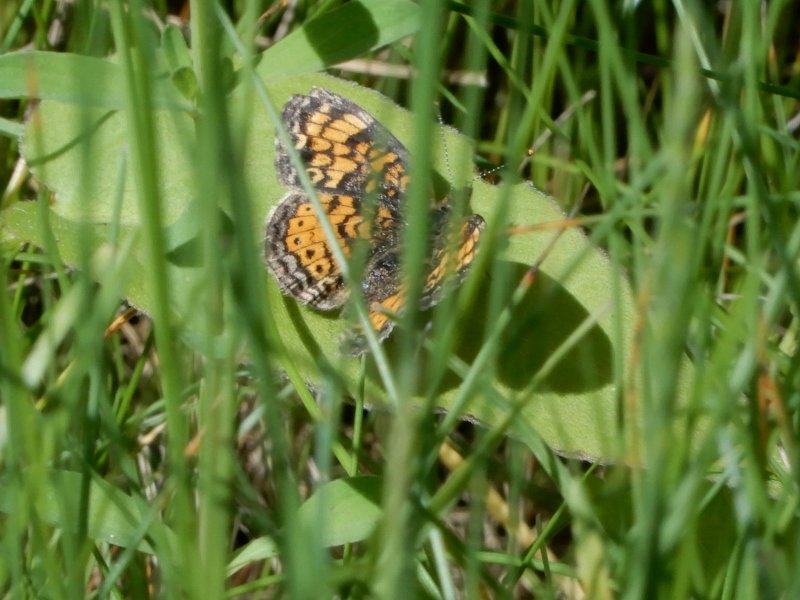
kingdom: Animalia
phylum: Arthropoda
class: Insecta
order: Lepidoptera
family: Nymphalidae
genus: Phyciodes
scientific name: Phyciodes tharos
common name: Northern Crescent
